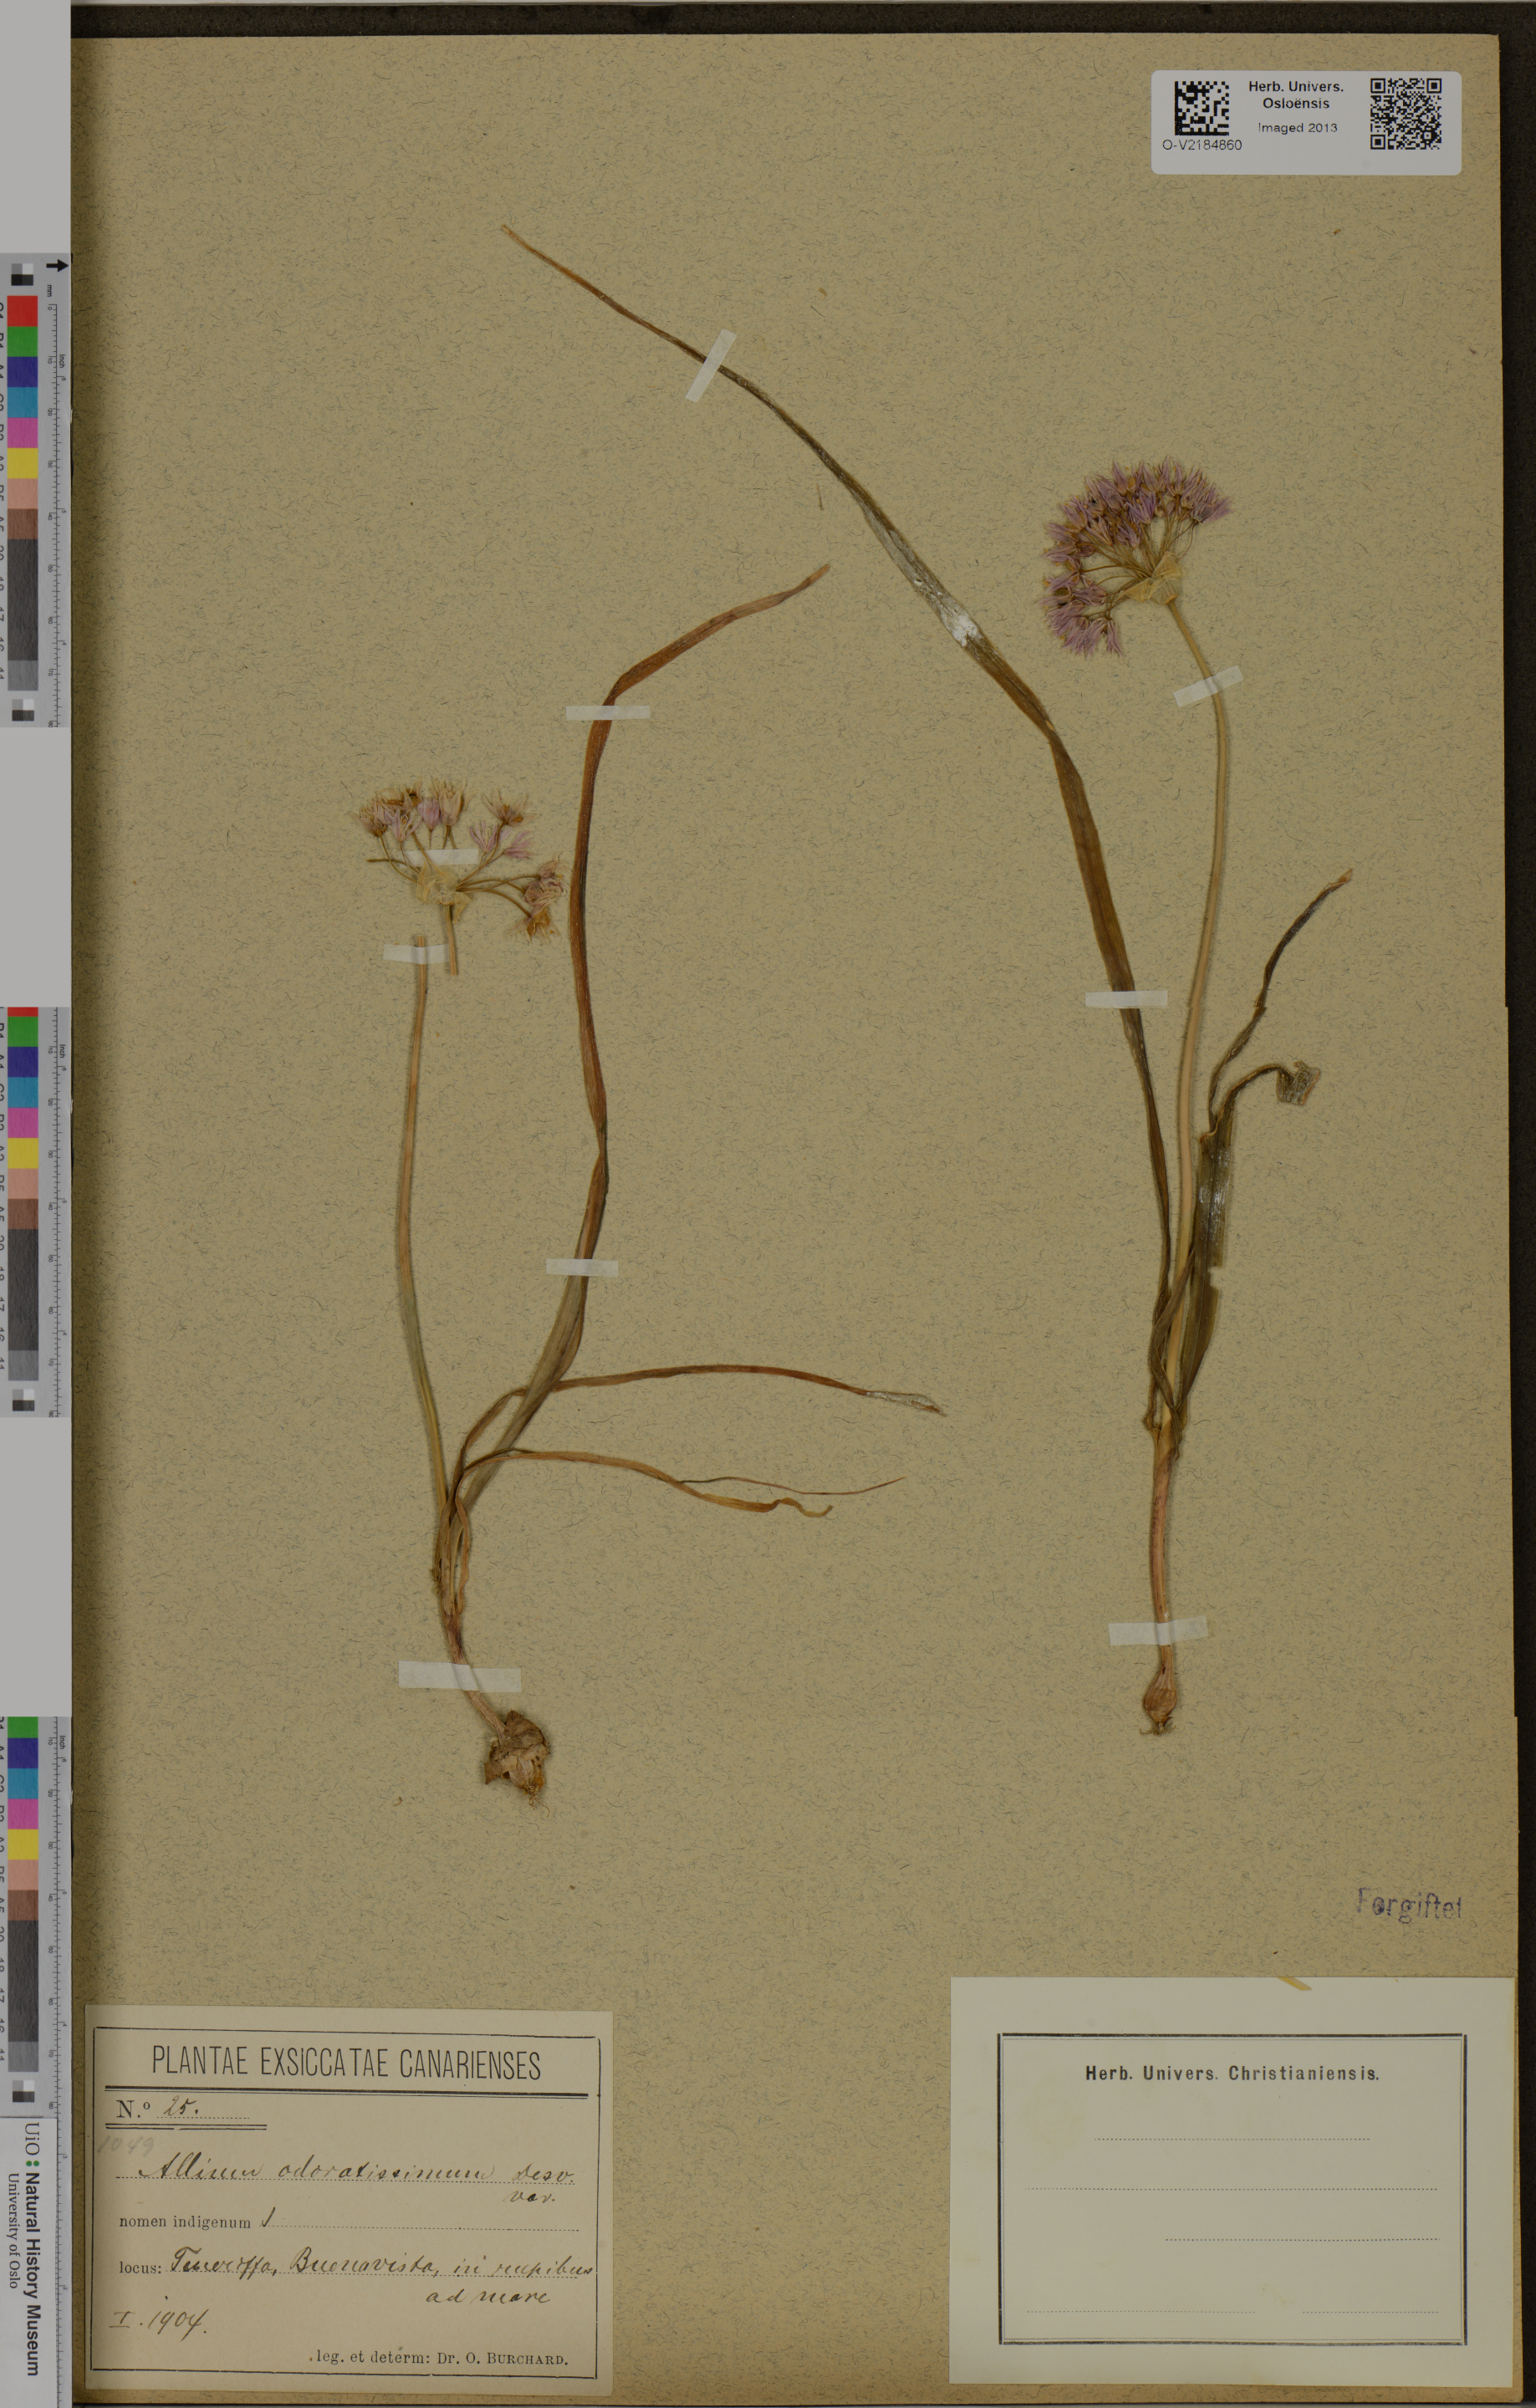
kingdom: Plantae
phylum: Tracheophyta
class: Liliopsida
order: Asparagales
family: Amaryllidaceae
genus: Allium
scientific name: Allium roseum
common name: Rosy garlic
